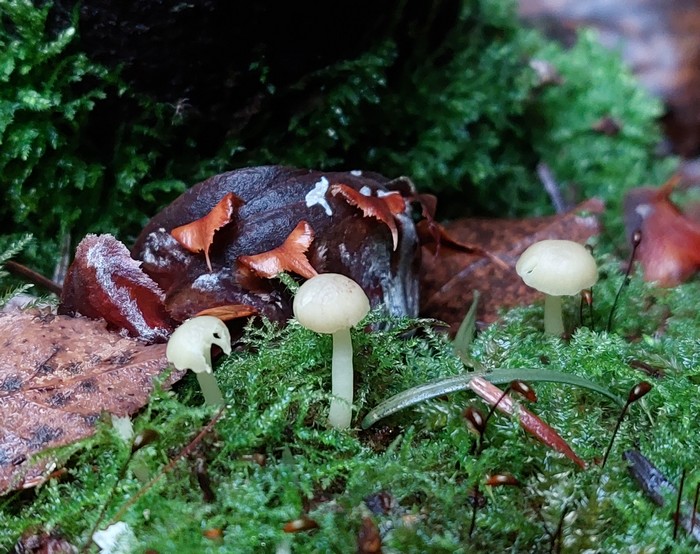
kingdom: Fungi
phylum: Basidiomycota
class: Agaricomycetes
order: Agaricales
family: Hygrophoraceae
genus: Chrysomphalina
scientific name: Chrysomphalina grossula
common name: stød-gyldenblad
